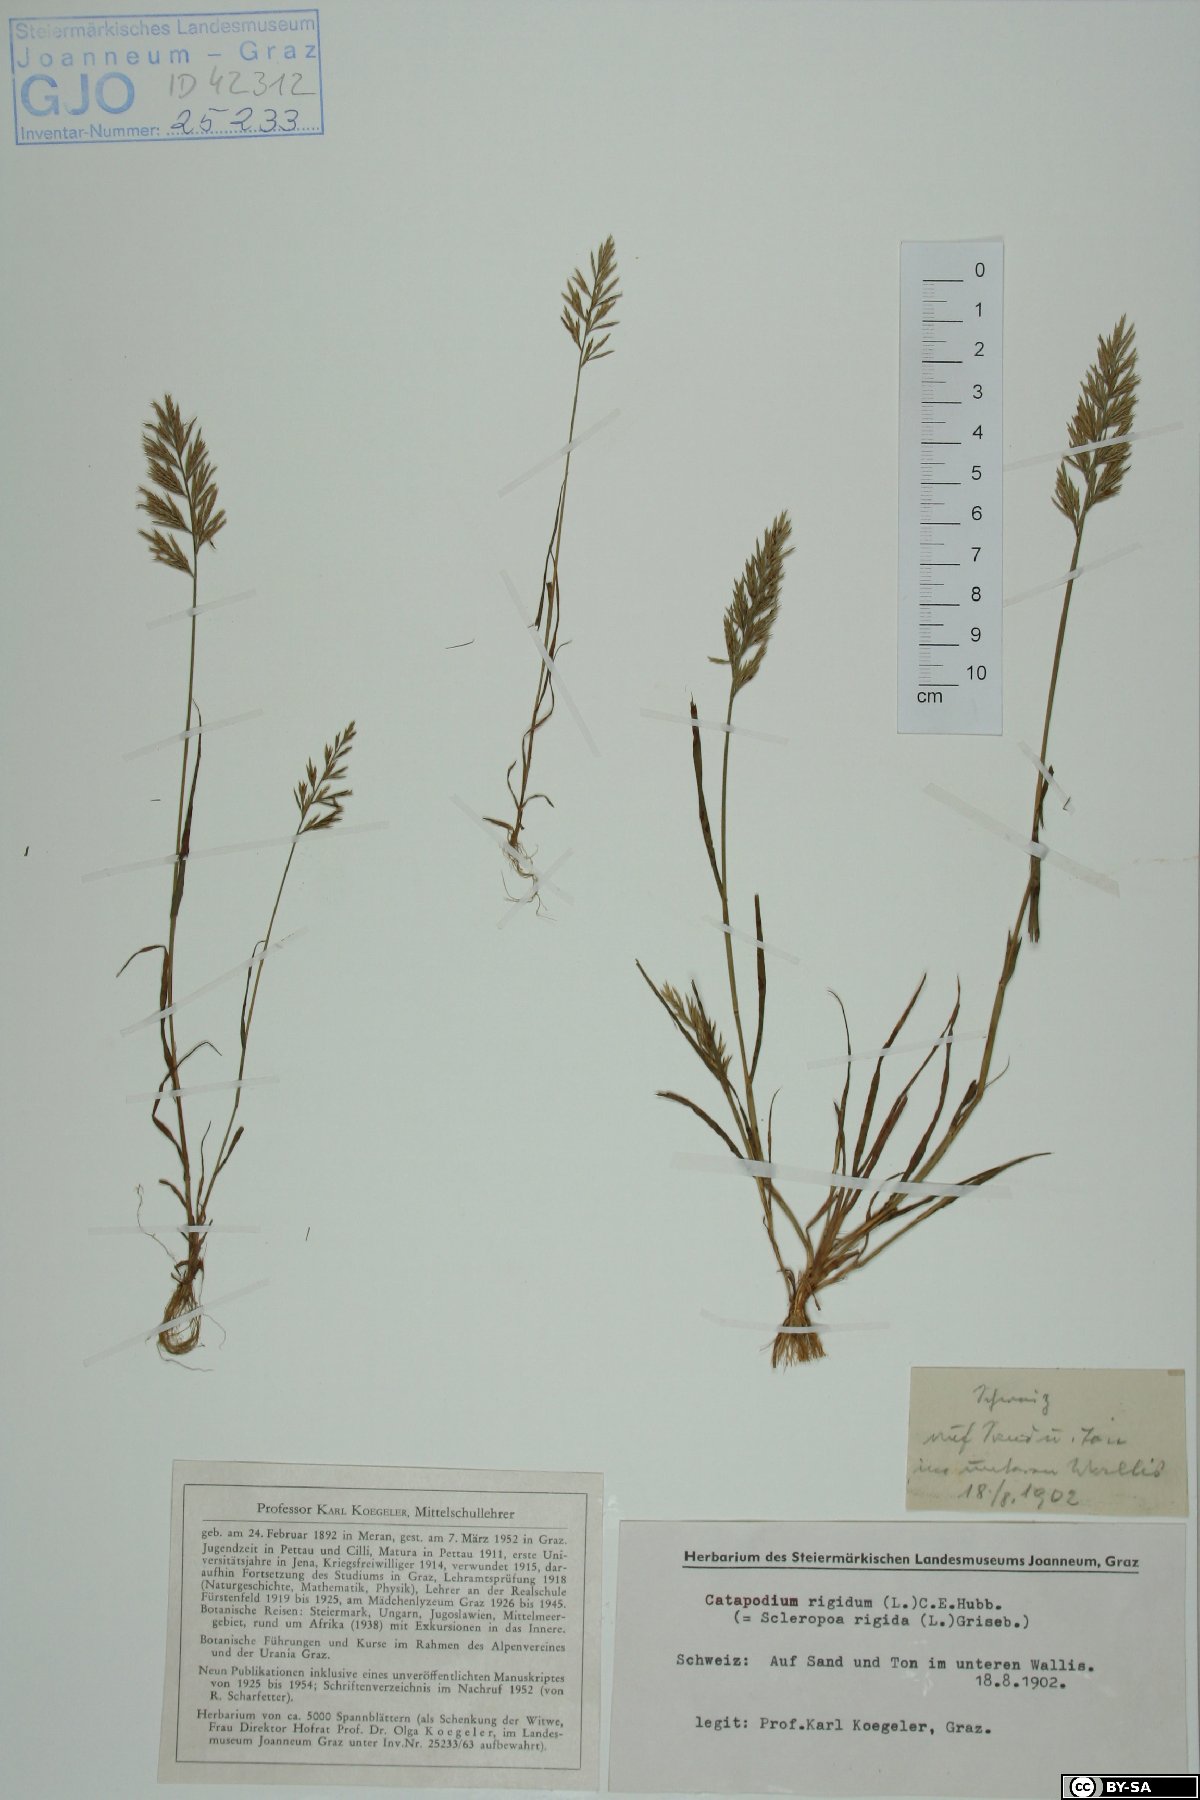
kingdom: Plantae
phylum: Tracheophyta
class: Liliopsida
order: Poales
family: Poaceae
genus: Catapodium
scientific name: Catapodium rigidum
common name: Fern-grass
